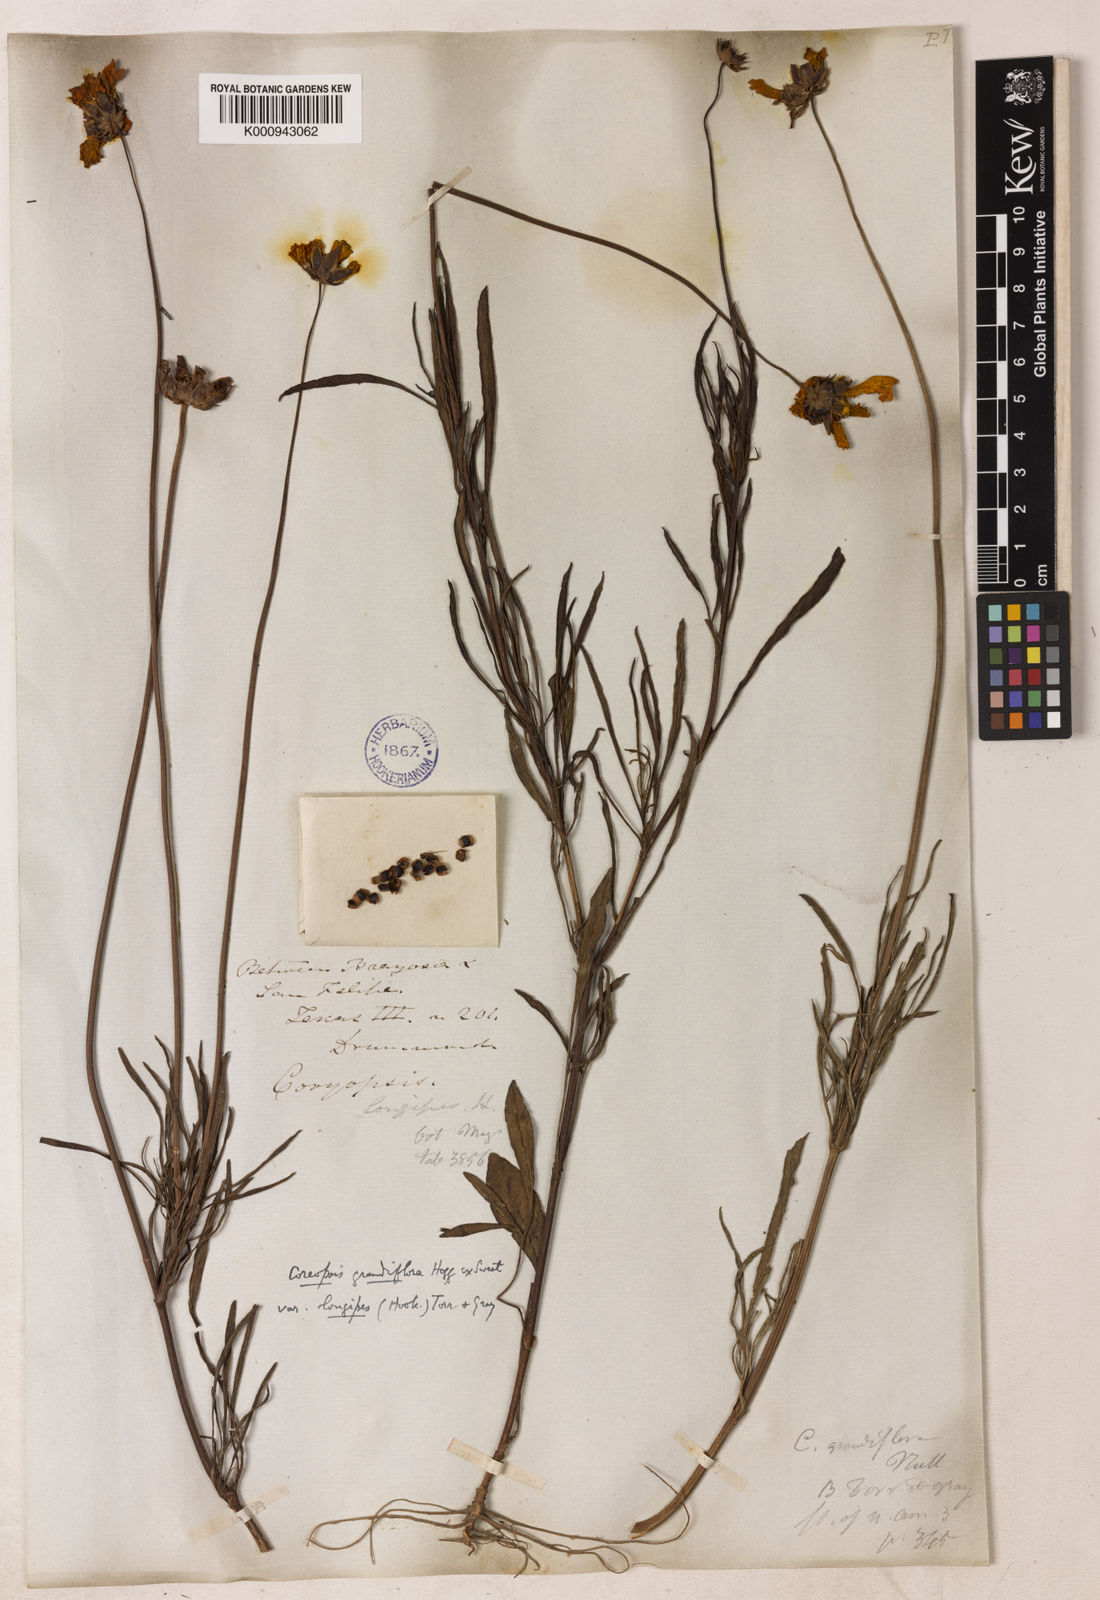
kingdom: Plantae
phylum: Tracheophyta
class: Magnoliopsida
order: Asterales
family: Asteraceae
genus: Coreopsis
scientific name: Coreopsis grandiflora
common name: Large-flowered tickseed
